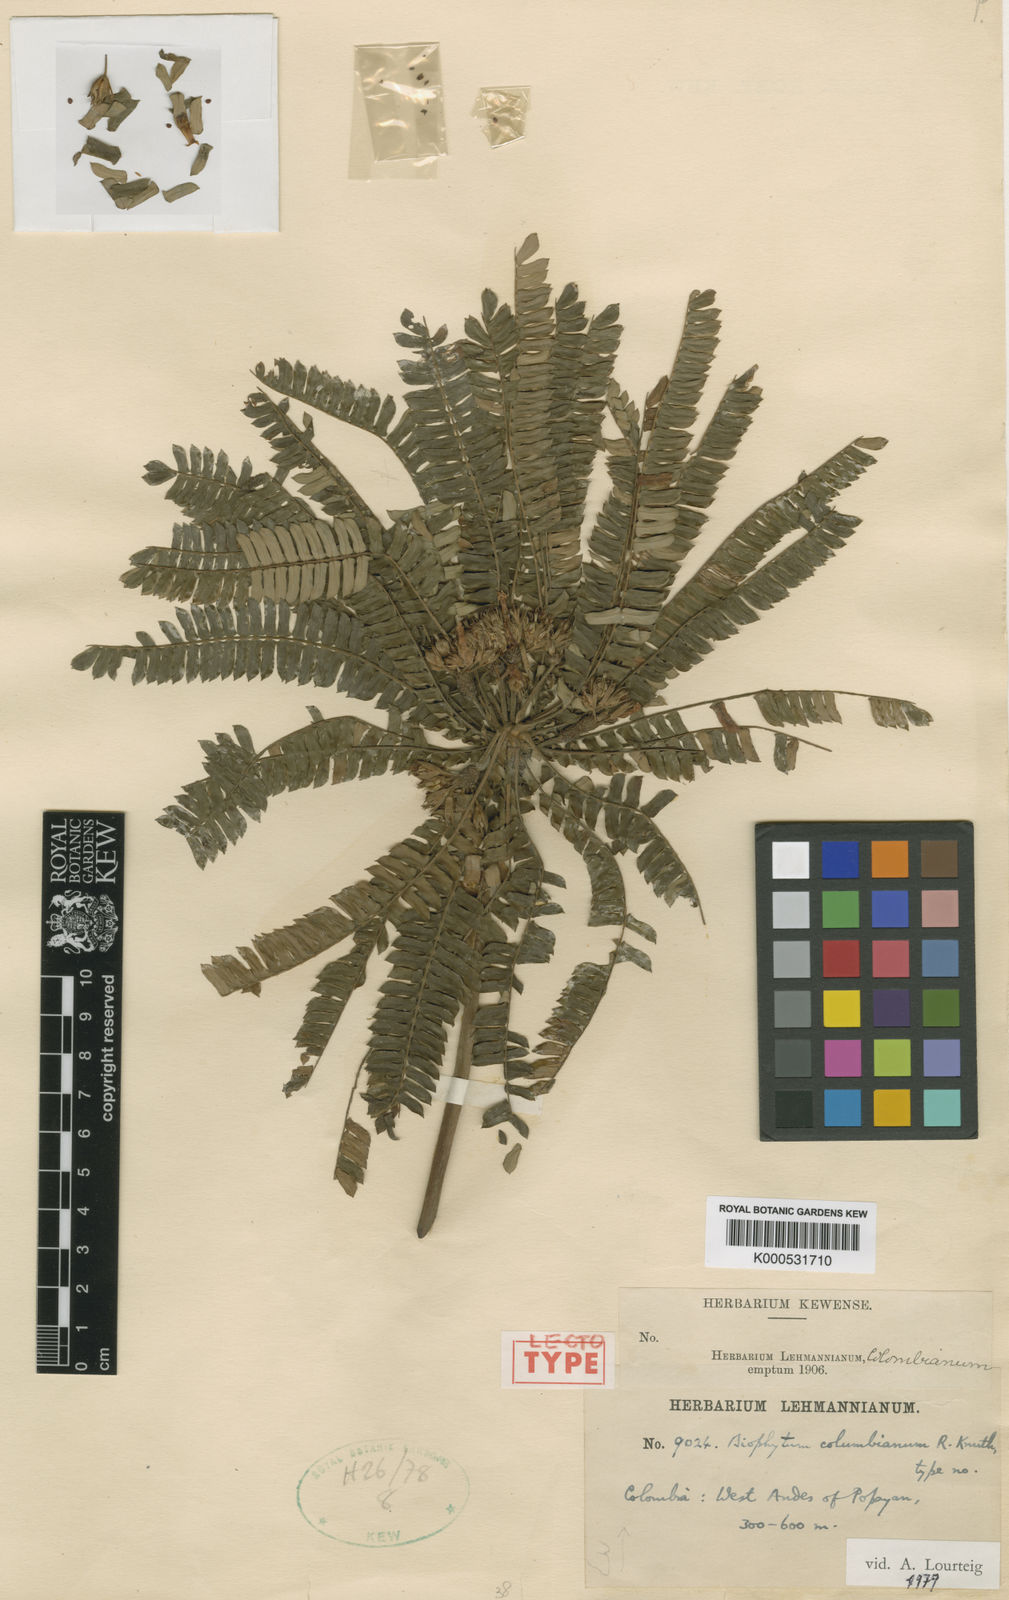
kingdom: Plantae
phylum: Tracheophyta
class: Magnoliopsida
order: Oxalidales
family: Oxalidaceae
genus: Biophytum
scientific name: Biophytum columbianum
